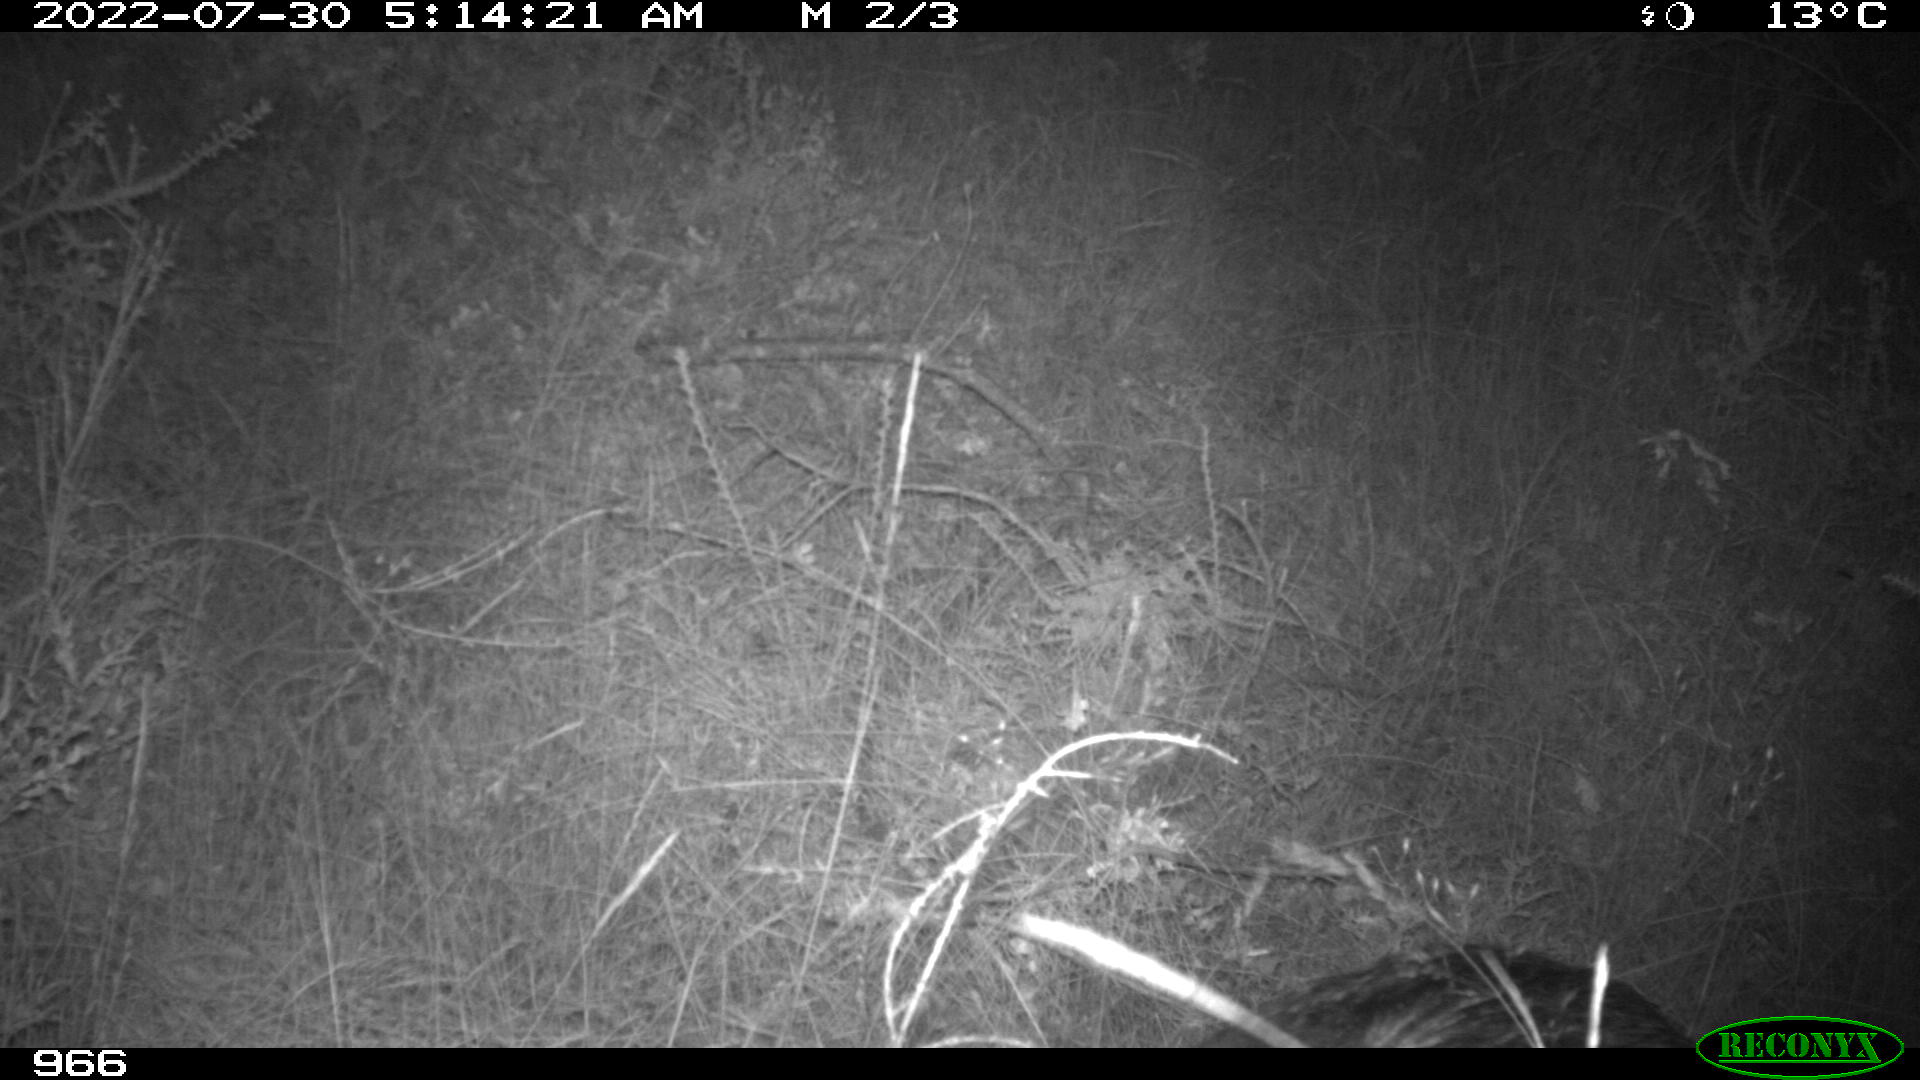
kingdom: Animalia
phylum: Chordata
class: Mammalia
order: Artiodactyla
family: Suidae
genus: Sus
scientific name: Sus scrofa
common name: Wild boar
